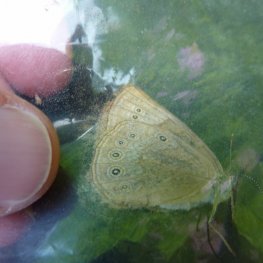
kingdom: Animalia
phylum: Arthropoda
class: Insecta
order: Lepidoptera
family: Nymphalidae
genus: Lethe
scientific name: Lethe eurydice
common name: Eyed Brown
